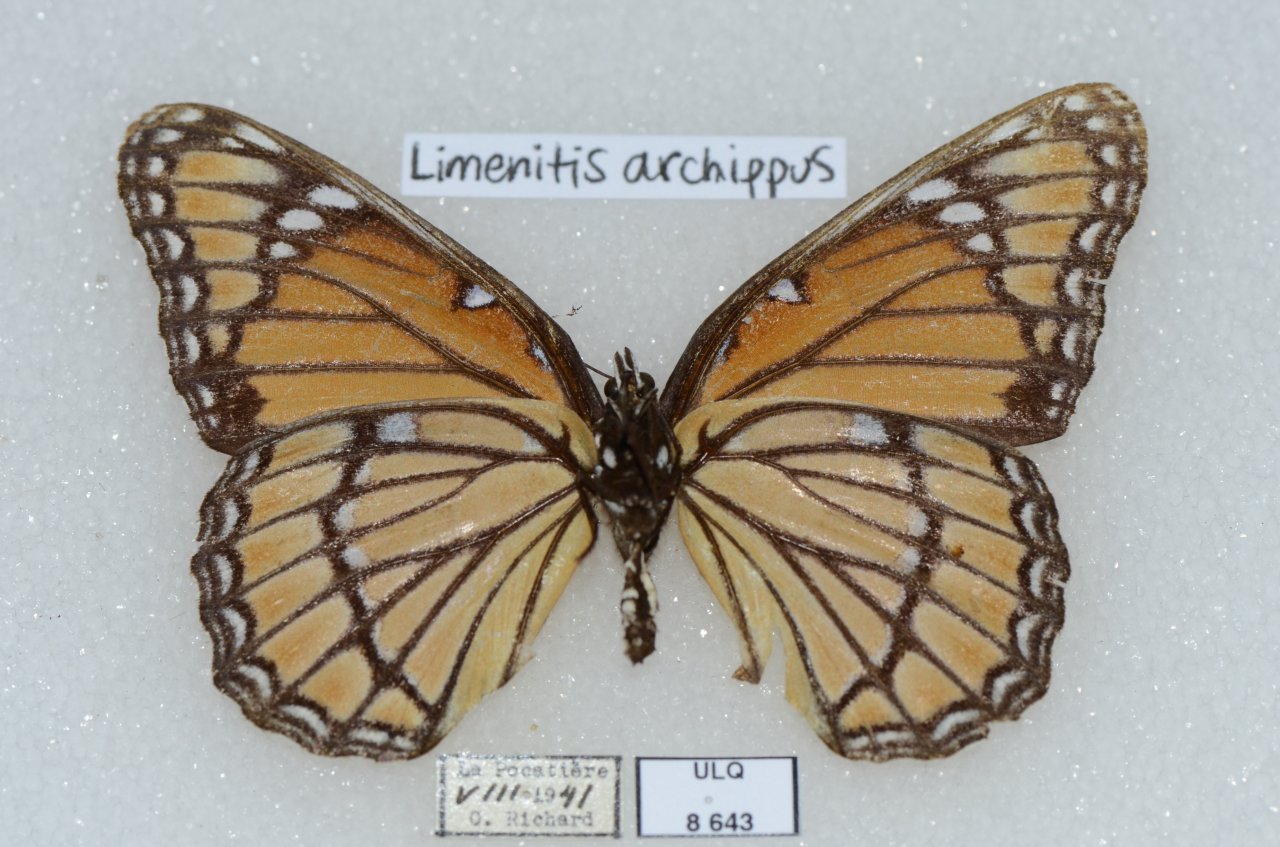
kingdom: Animalia
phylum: Arthropoda
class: Insecta
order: Lepidoptera
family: Nymphalidae
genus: Limenitis
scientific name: Limenitis archippus
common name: Viceroy
